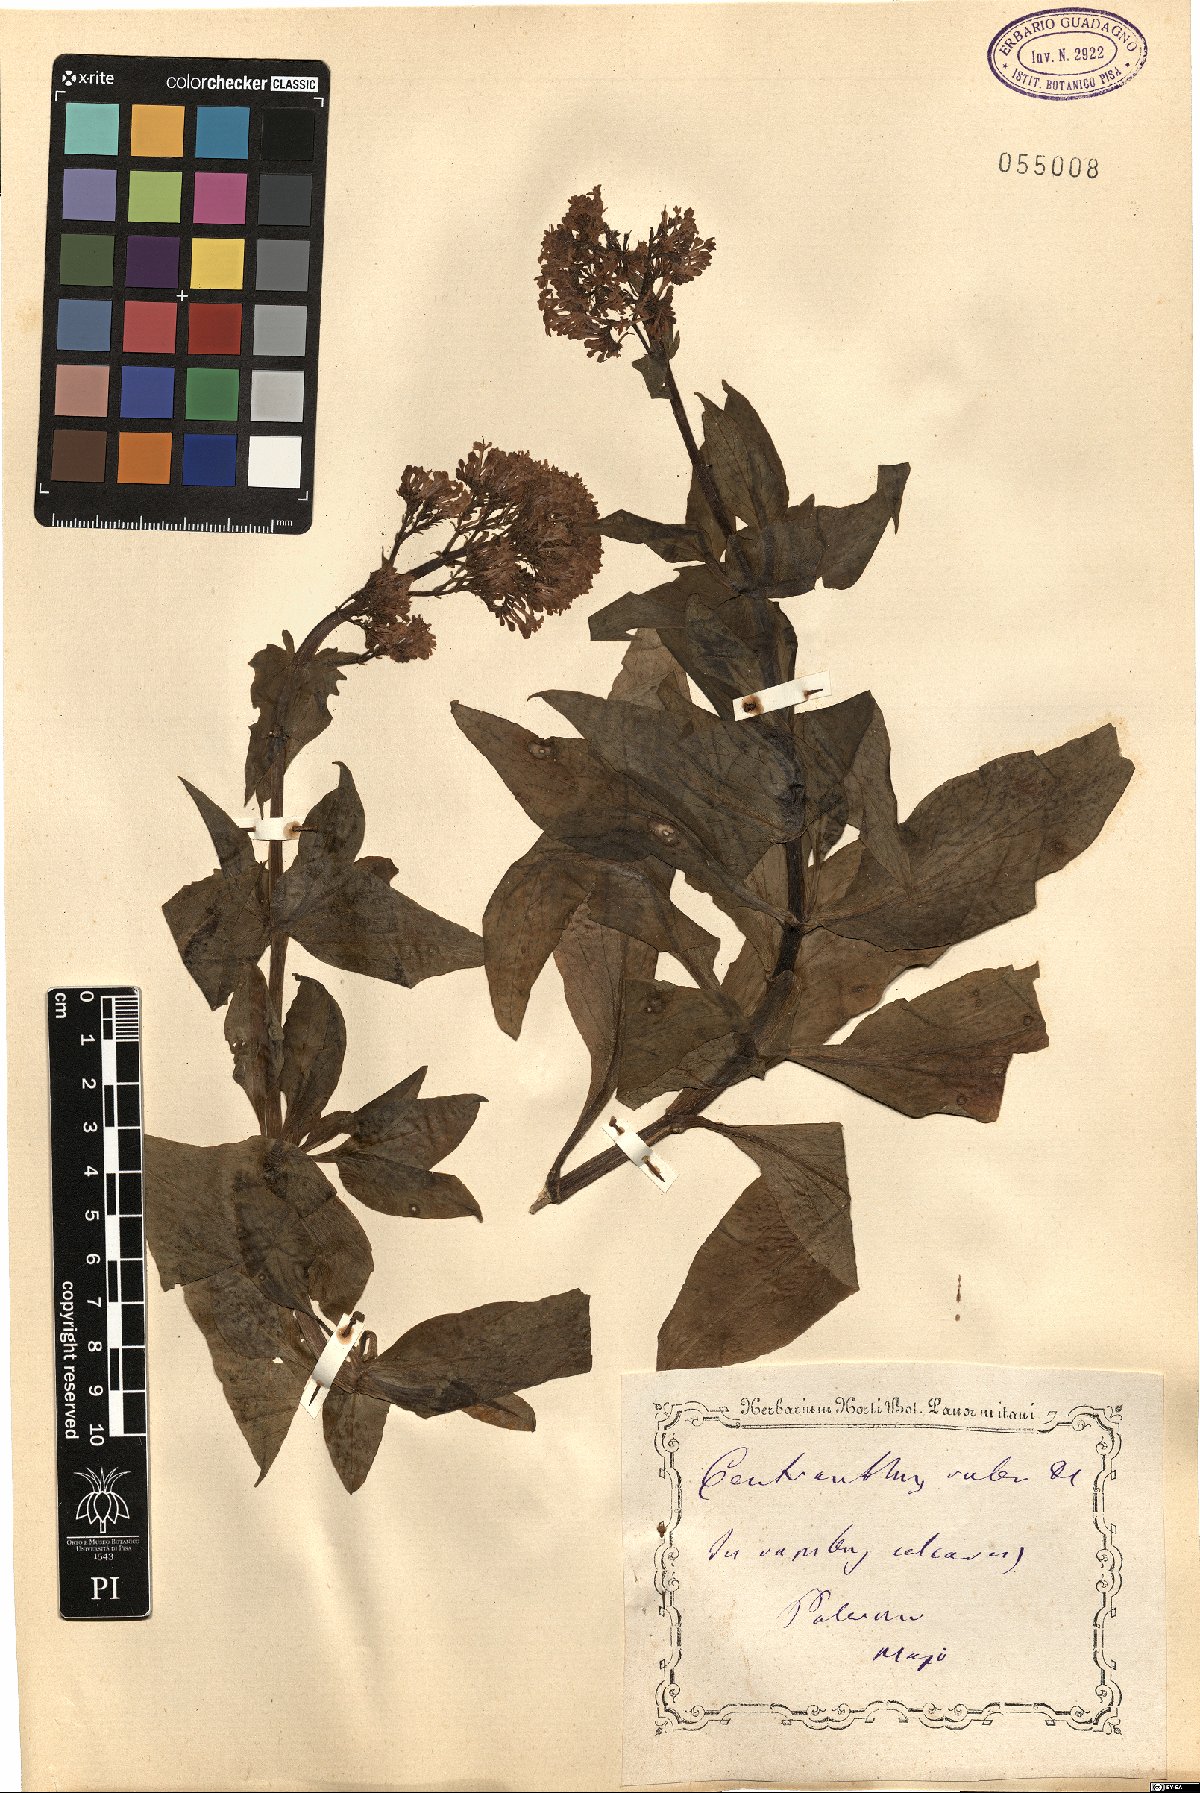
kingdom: Plantae
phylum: Tracheophyta
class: Magnoliopsida
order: Dipsacales
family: Caprifoliaceae
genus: Centranthus
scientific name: Centranthus ruber
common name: Red valerian
